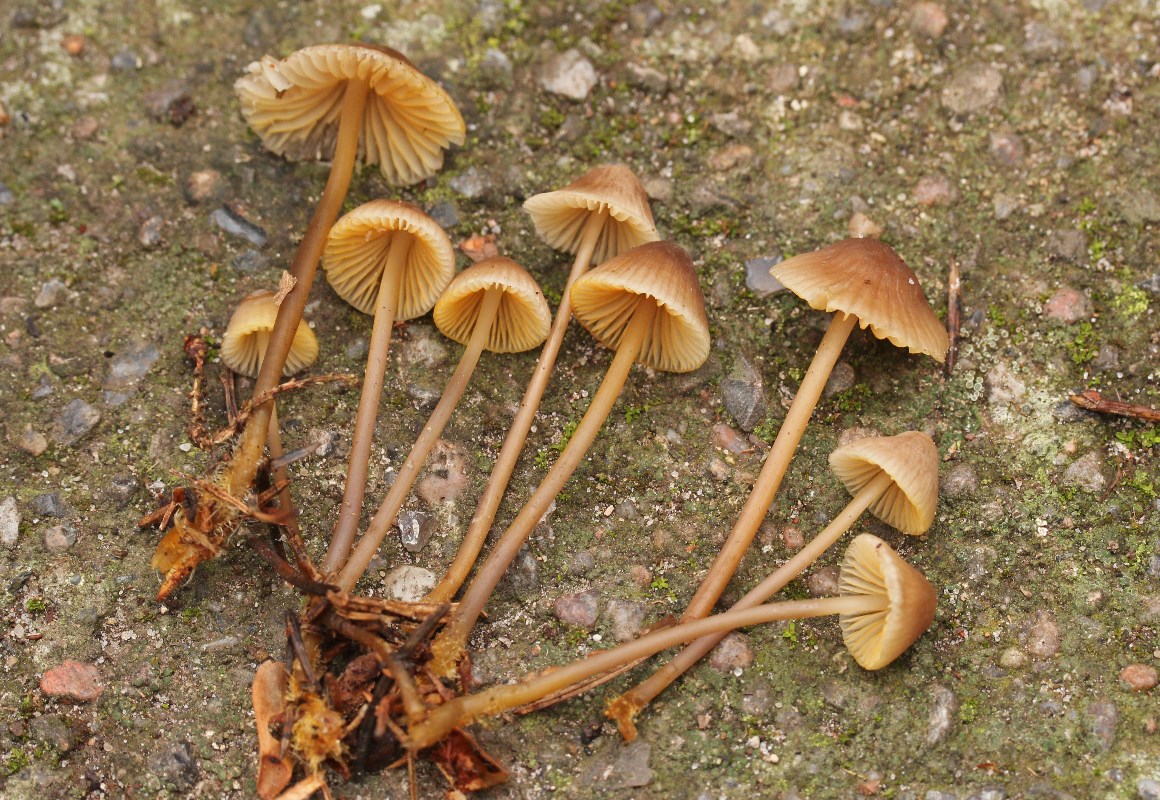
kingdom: Fungi
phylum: Basidiomycota
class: Agaricomycetes
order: Agaricales
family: Mycenaceae
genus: Mycena
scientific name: Mycena aurantiomarginata
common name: orangeægget huesvamp
